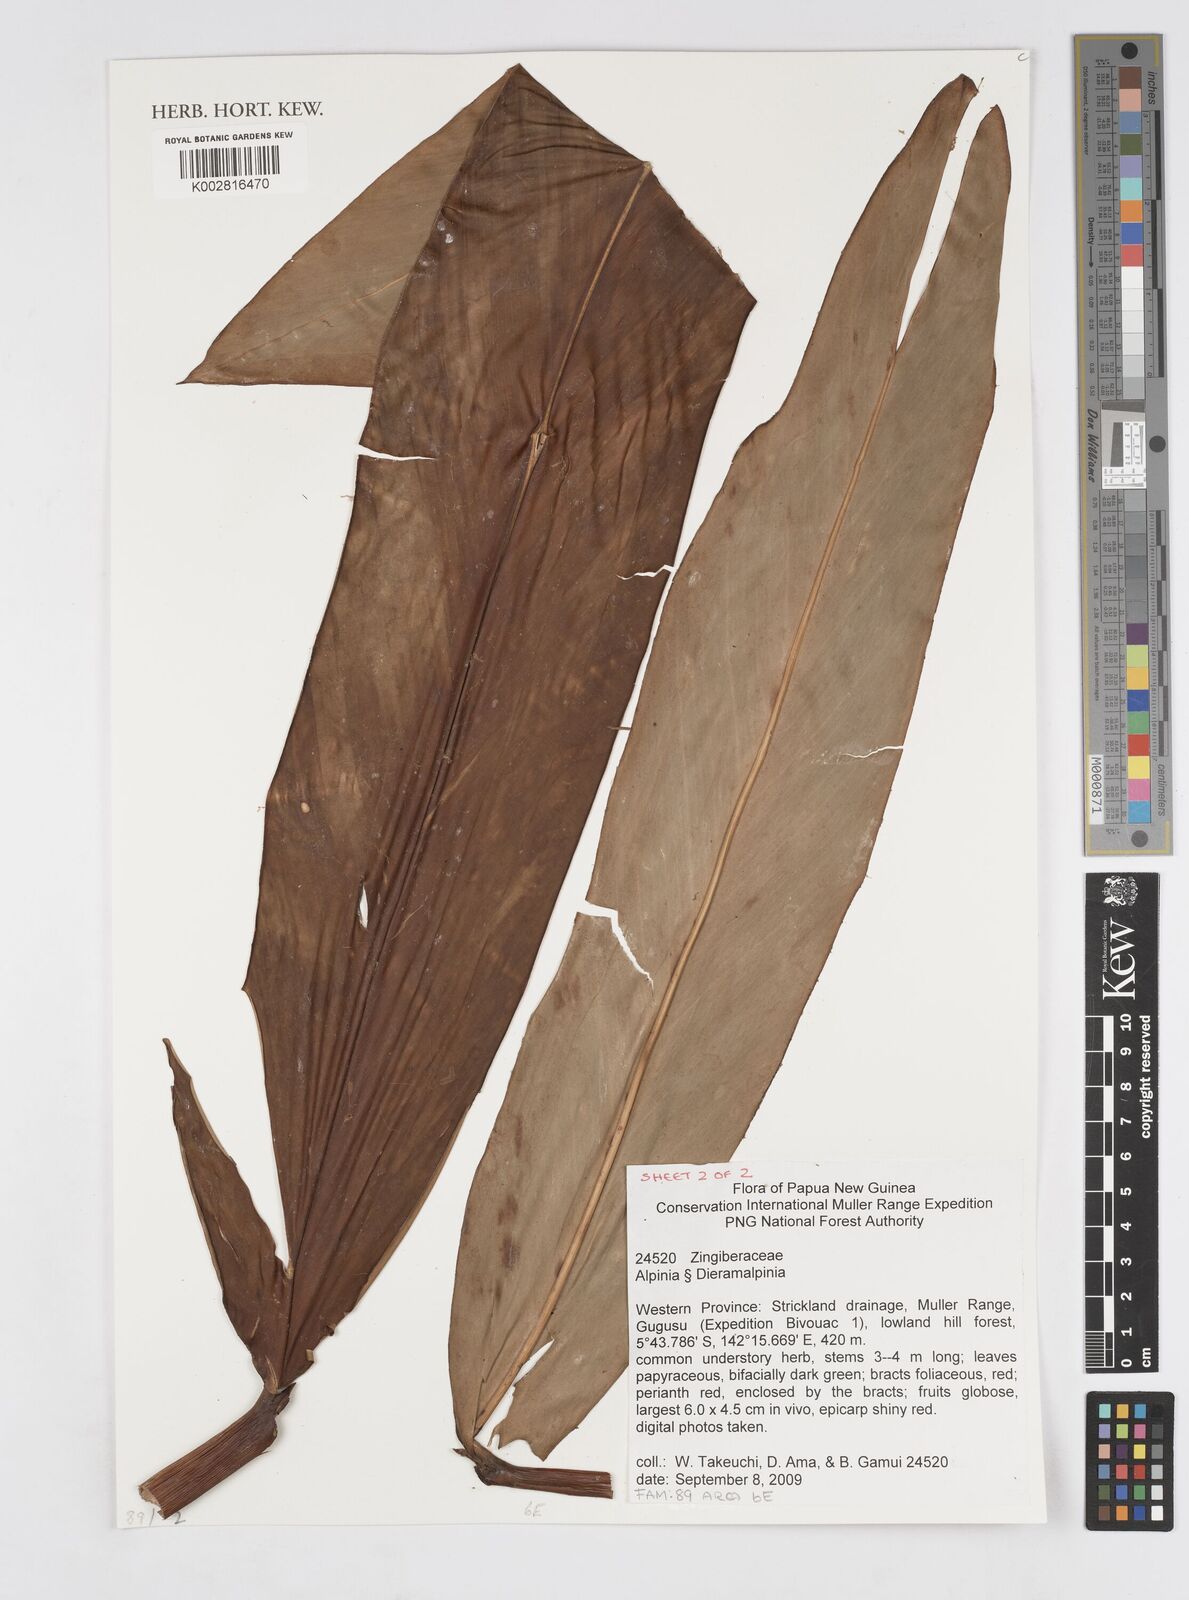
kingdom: Plantae
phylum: Tracheophyta
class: Liliopsida
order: Zingiberales
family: Zingiberaceae
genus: Alpinia
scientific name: Alpinia
